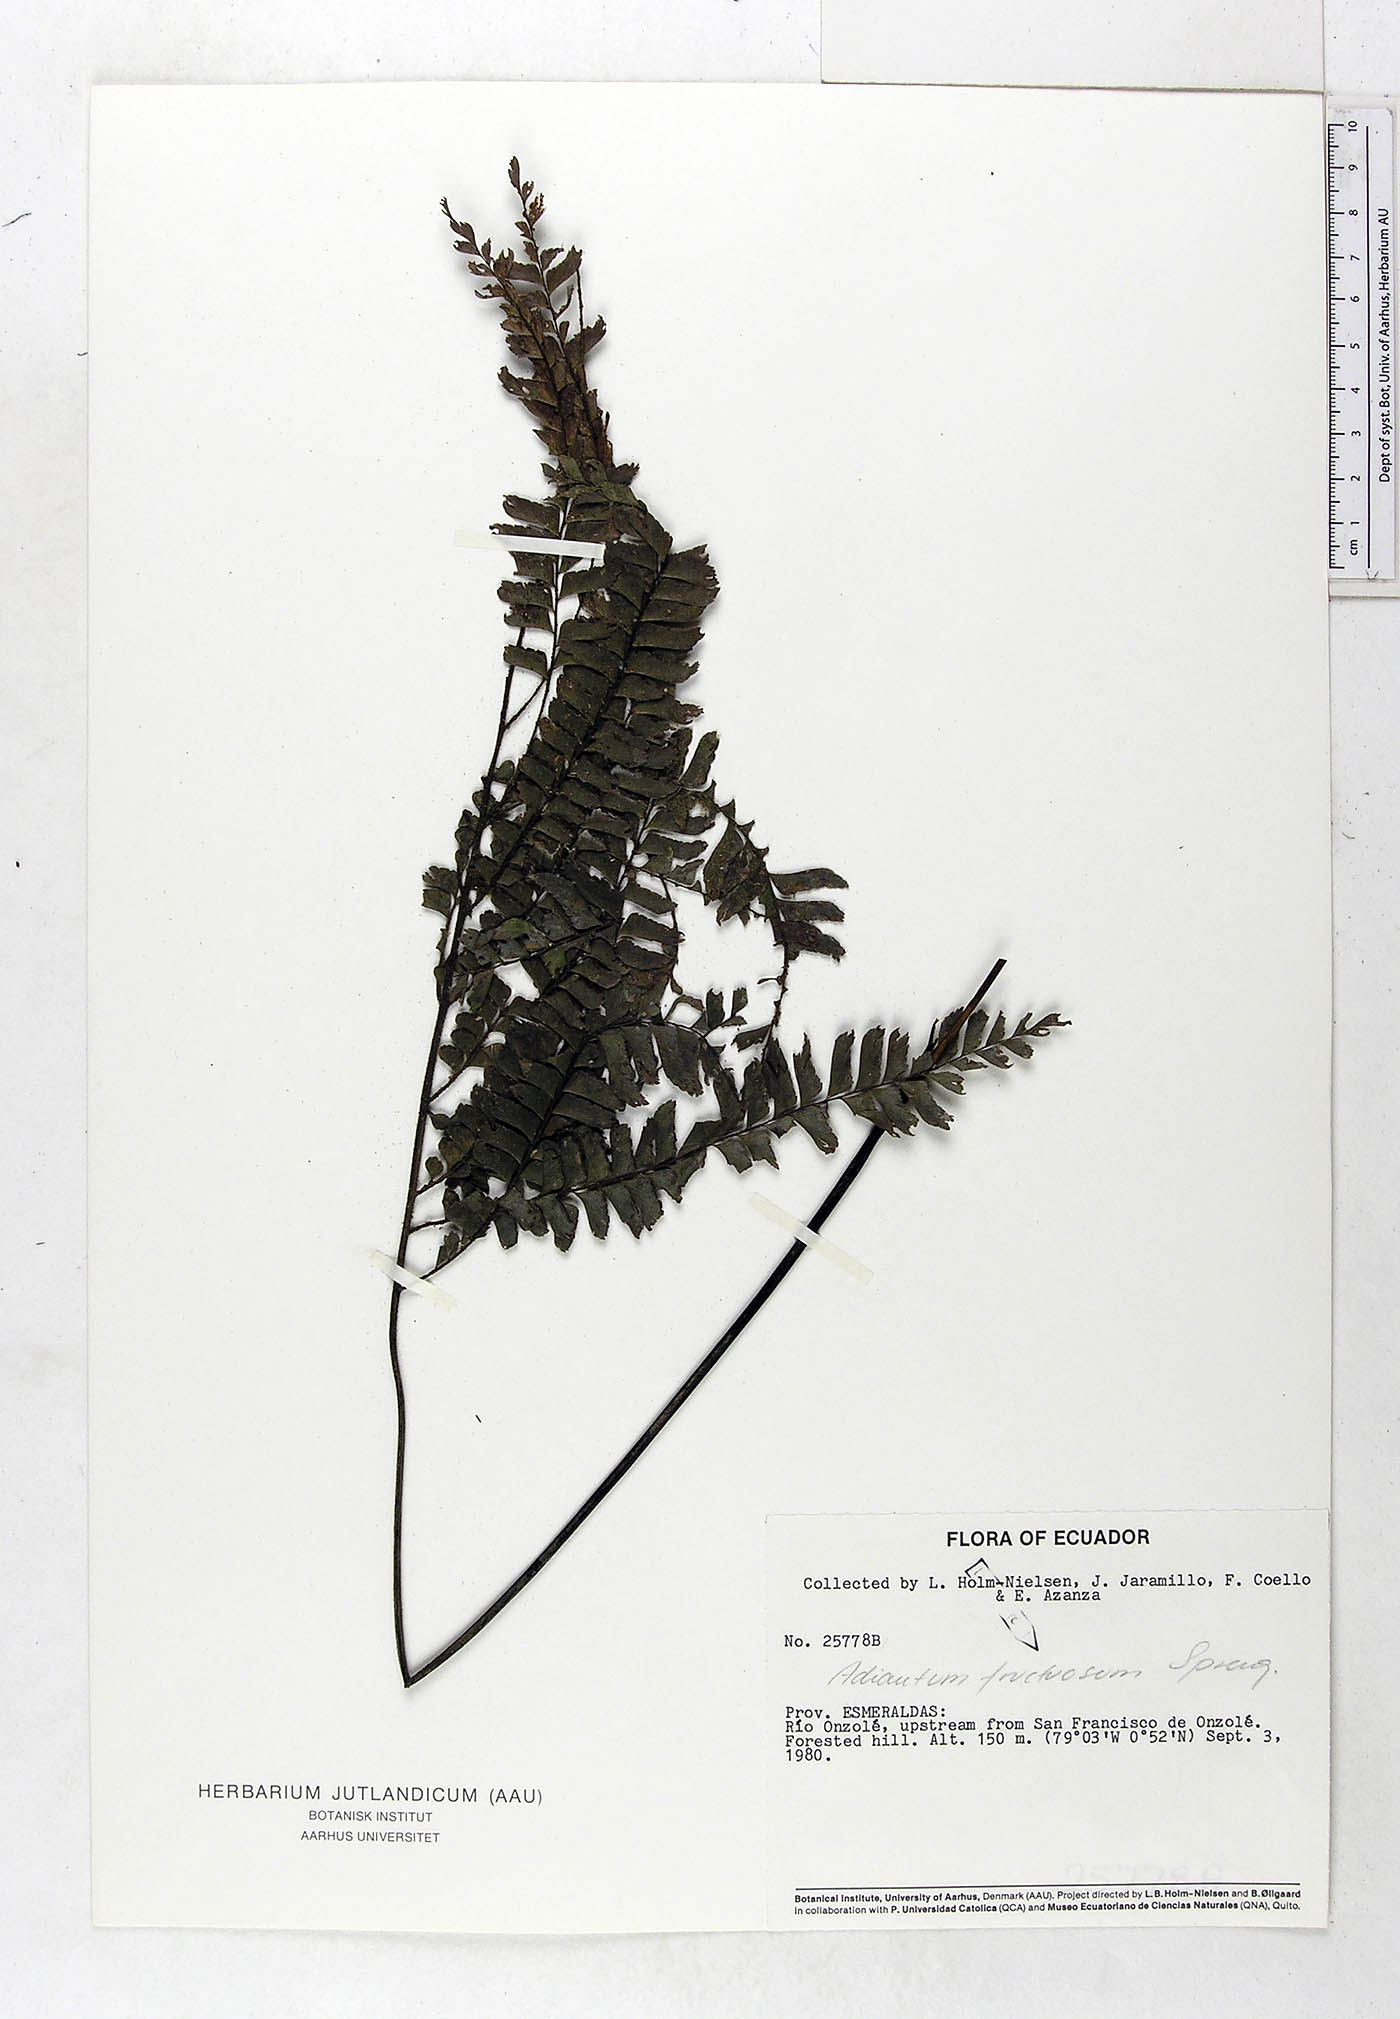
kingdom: Plantae
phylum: Tracheophyta
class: Polypodiopsida
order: Polypodiales
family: Pteridaceae
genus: Adiantum
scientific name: Adiantum tetraphyllum
